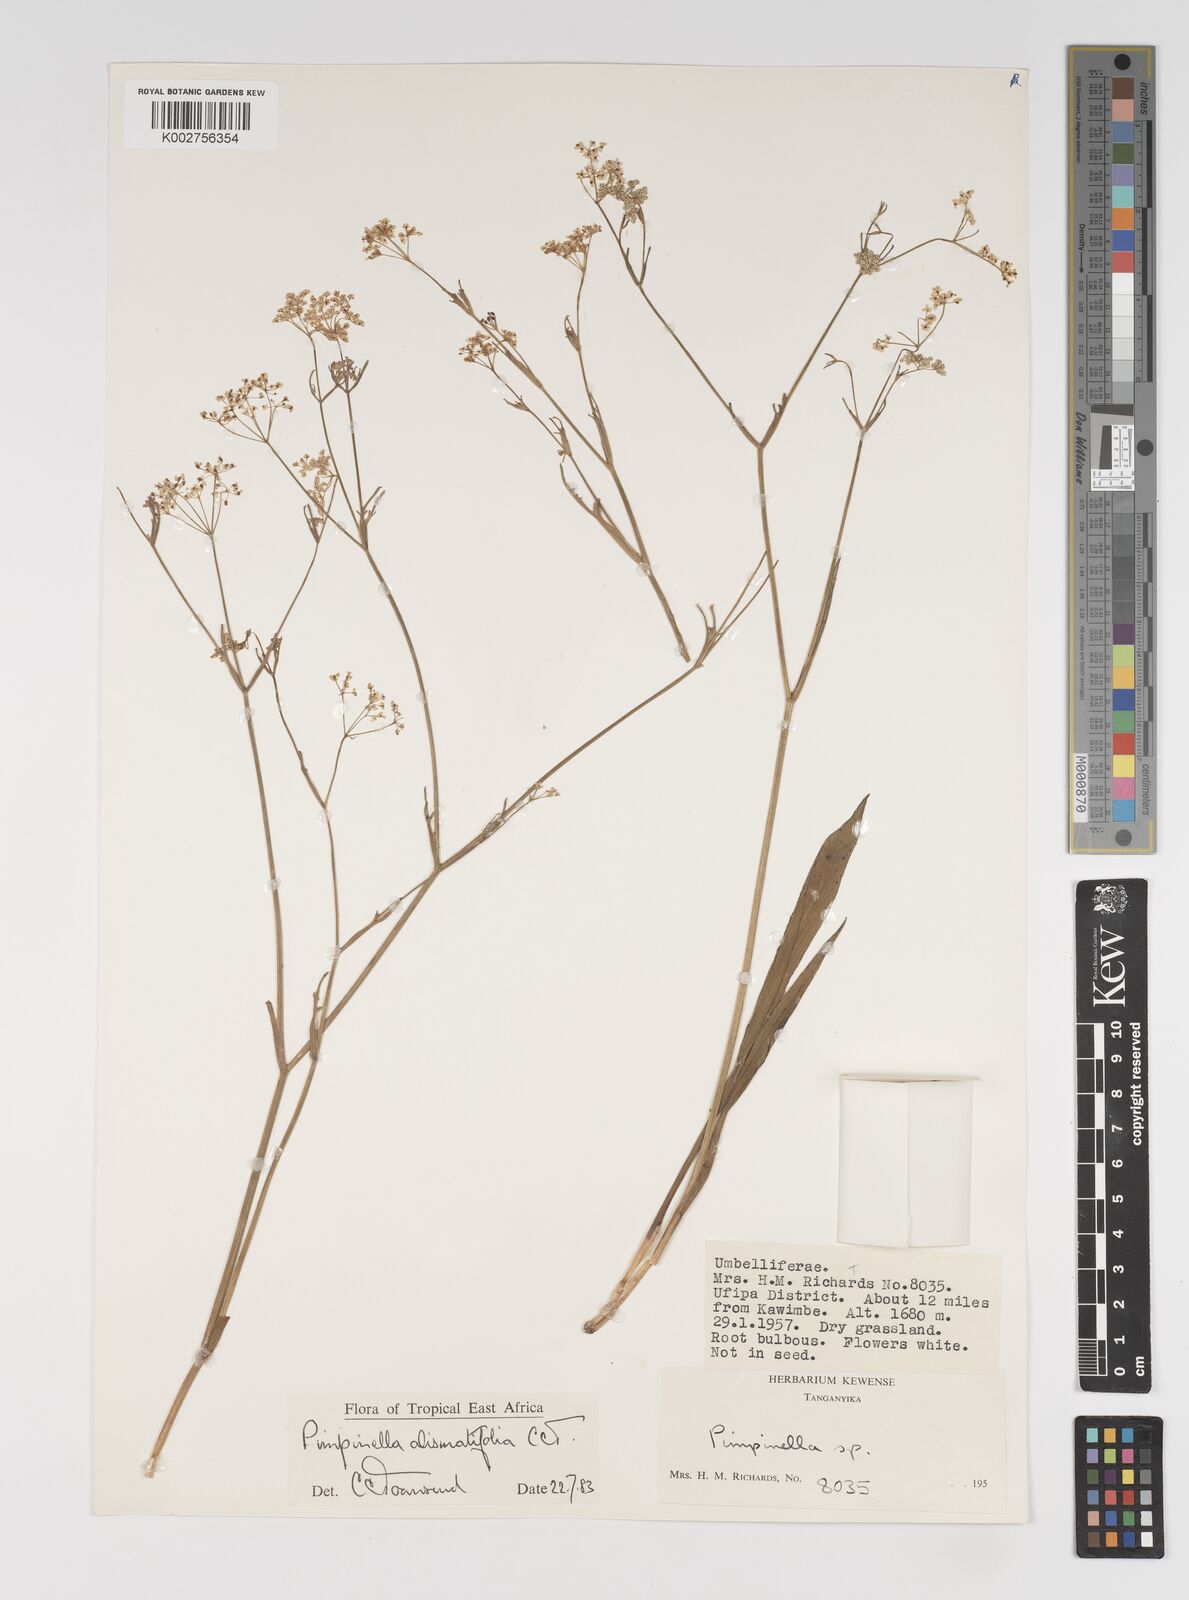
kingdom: Plantae
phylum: Tracheophyta
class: Magnoliopsida
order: Apiales
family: Apiaceae
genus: Pimpinella
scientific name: Pimpinella alismatifolia
